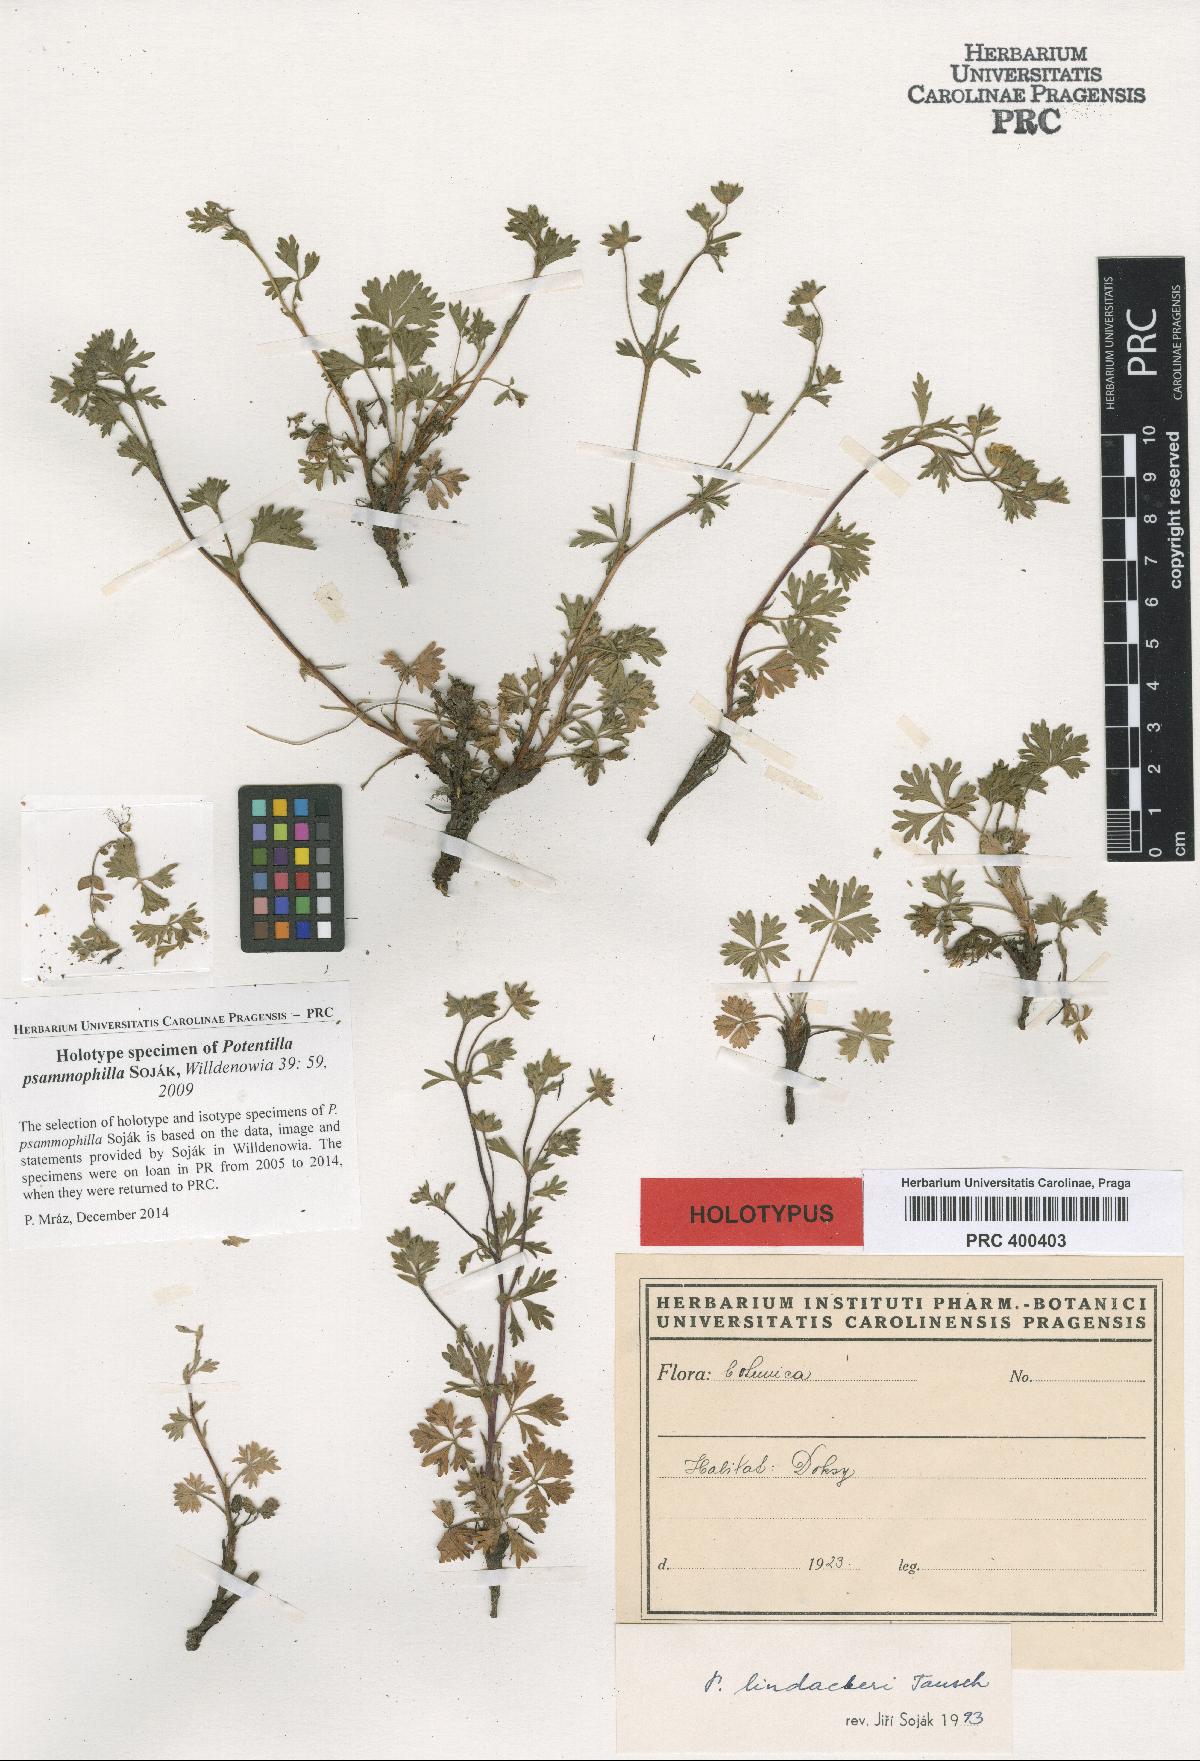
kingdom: Plantae
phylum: Tracheophyta
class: Magnoliopsida
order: Rosales
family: Rosaceae
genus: Potentilla
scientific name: Potentilla psammophila
